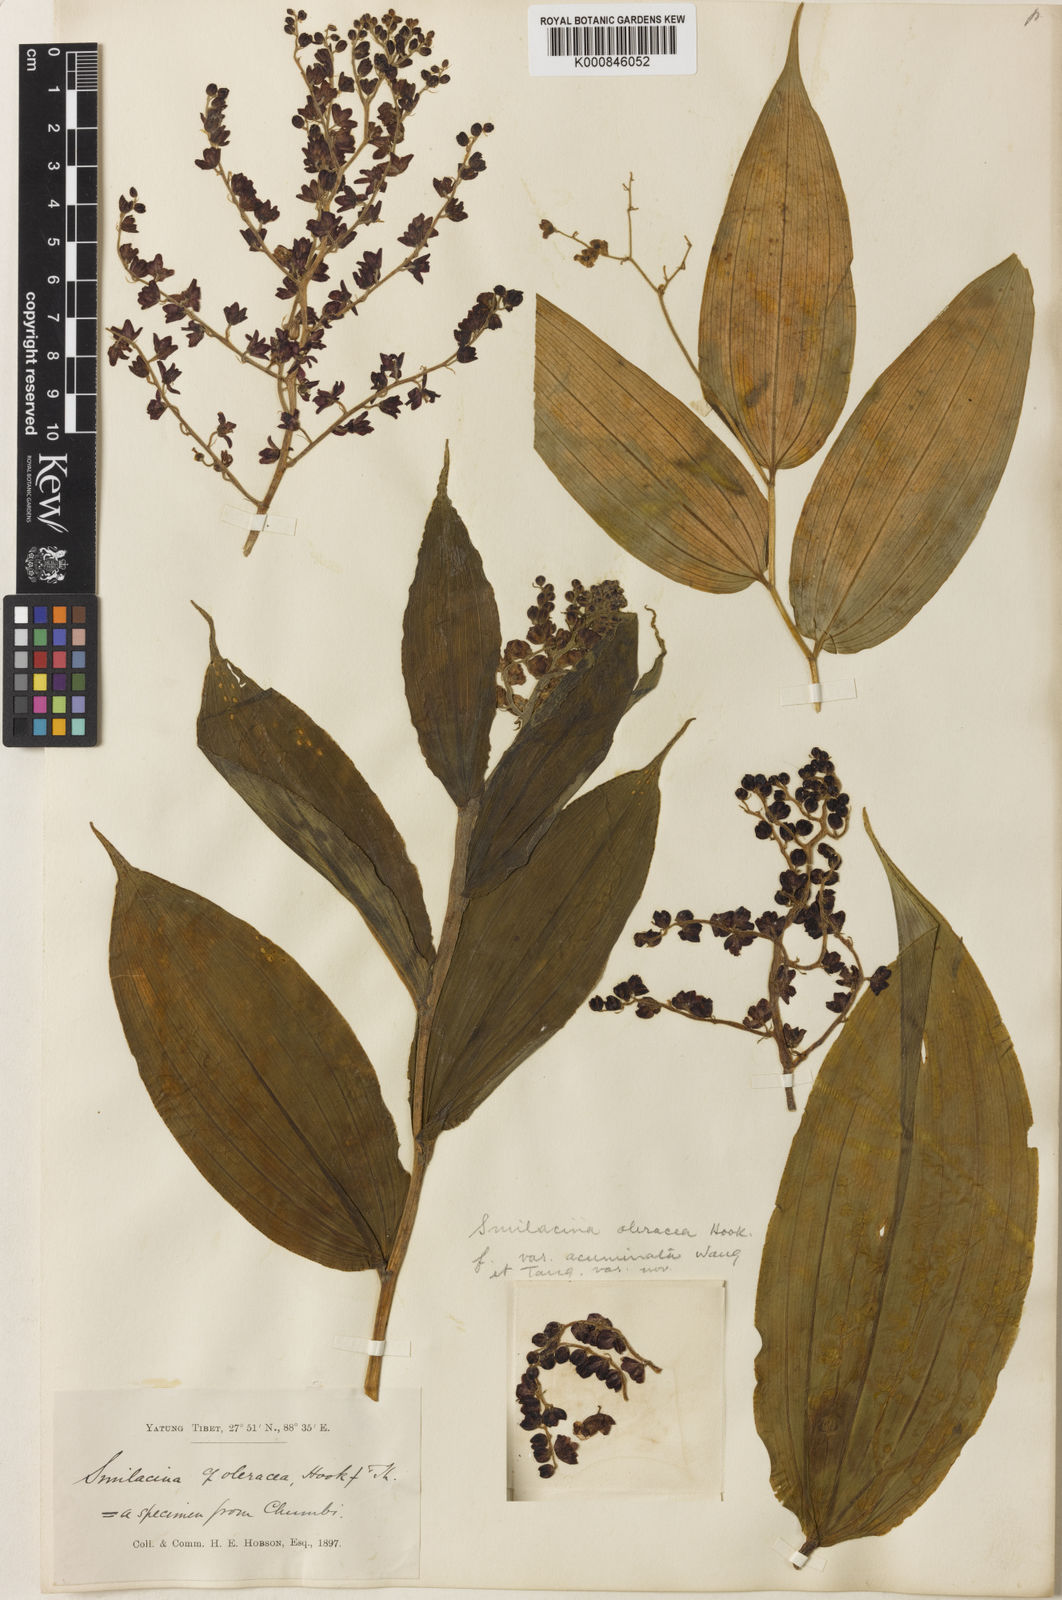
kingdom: Plantae
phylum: Tracheophyta
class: Liliopsida
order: Asparagales
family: Asparagaceae
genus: Maianthemum
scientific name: Maianthemum oleraceum
